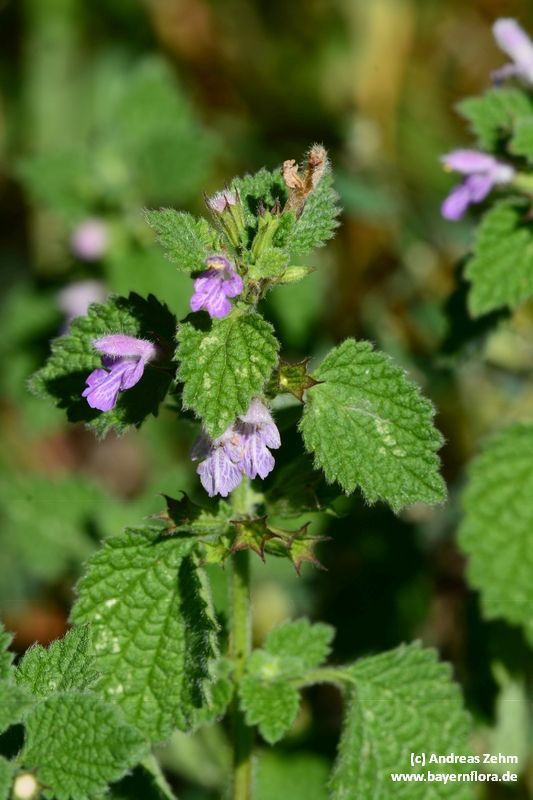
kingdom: Plantae
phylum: Tracheophyta
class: Magnoliopsida
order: Lamiales
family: Lamiaceae
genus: Ballota
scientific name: Ballota nigra
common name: Black horehound
